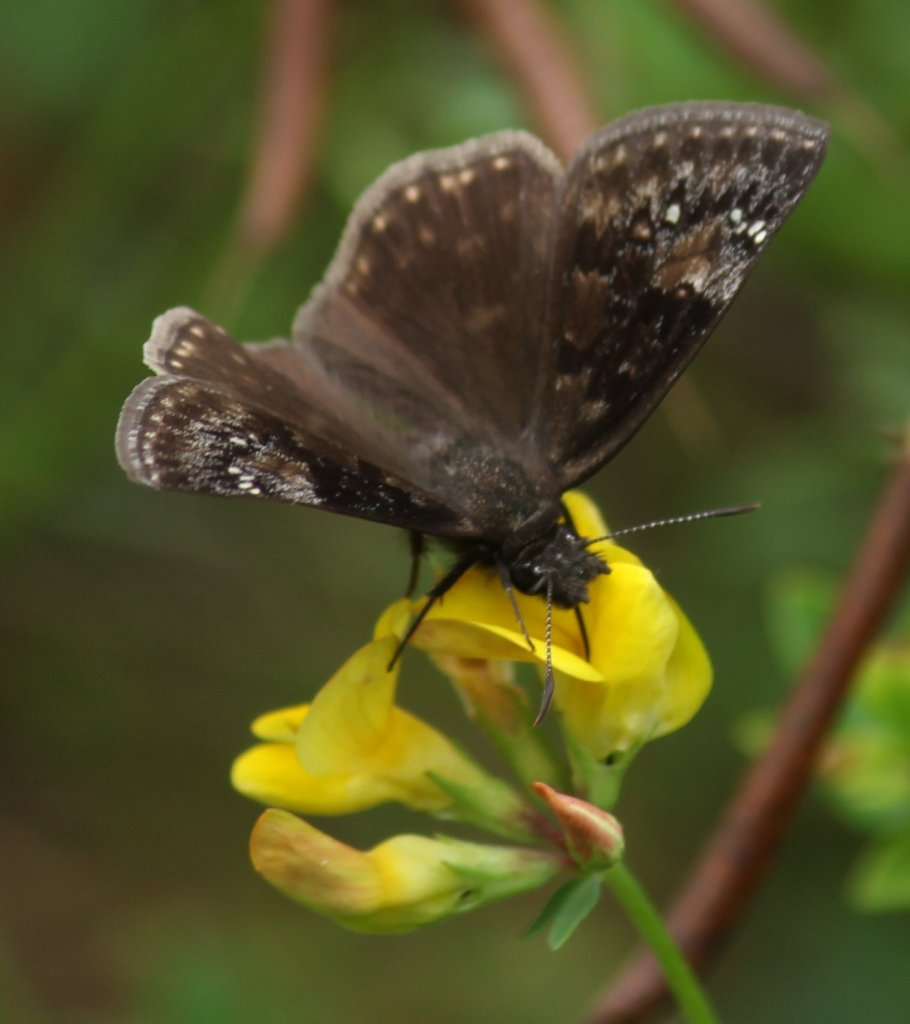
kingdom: Animalia
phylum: Arthropoda
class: Insecta
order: Lepidoptera
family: Hesperiidae
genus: Gesta
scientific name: Gesta
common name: Wild Indigo Duskywing
